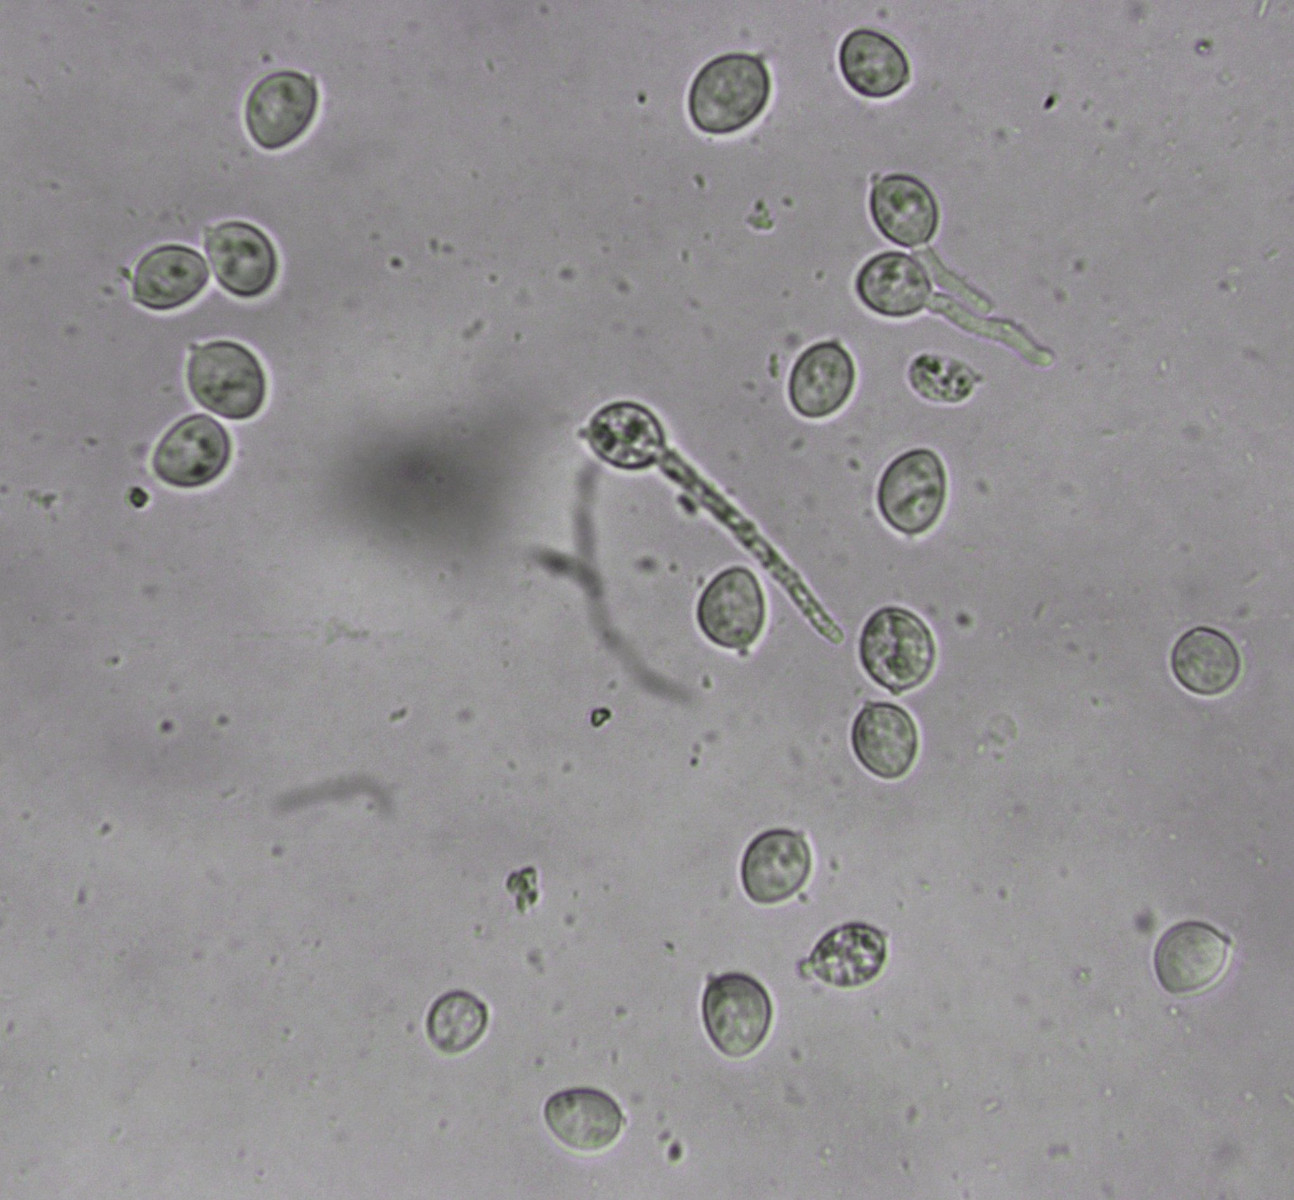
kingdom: Fungi
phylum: Basidiomycota
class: Agaricomycetes
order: Agaricales
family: Niaceae
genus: Lachnella
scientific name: Lachnella alboviolascens
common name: grå frynserede
